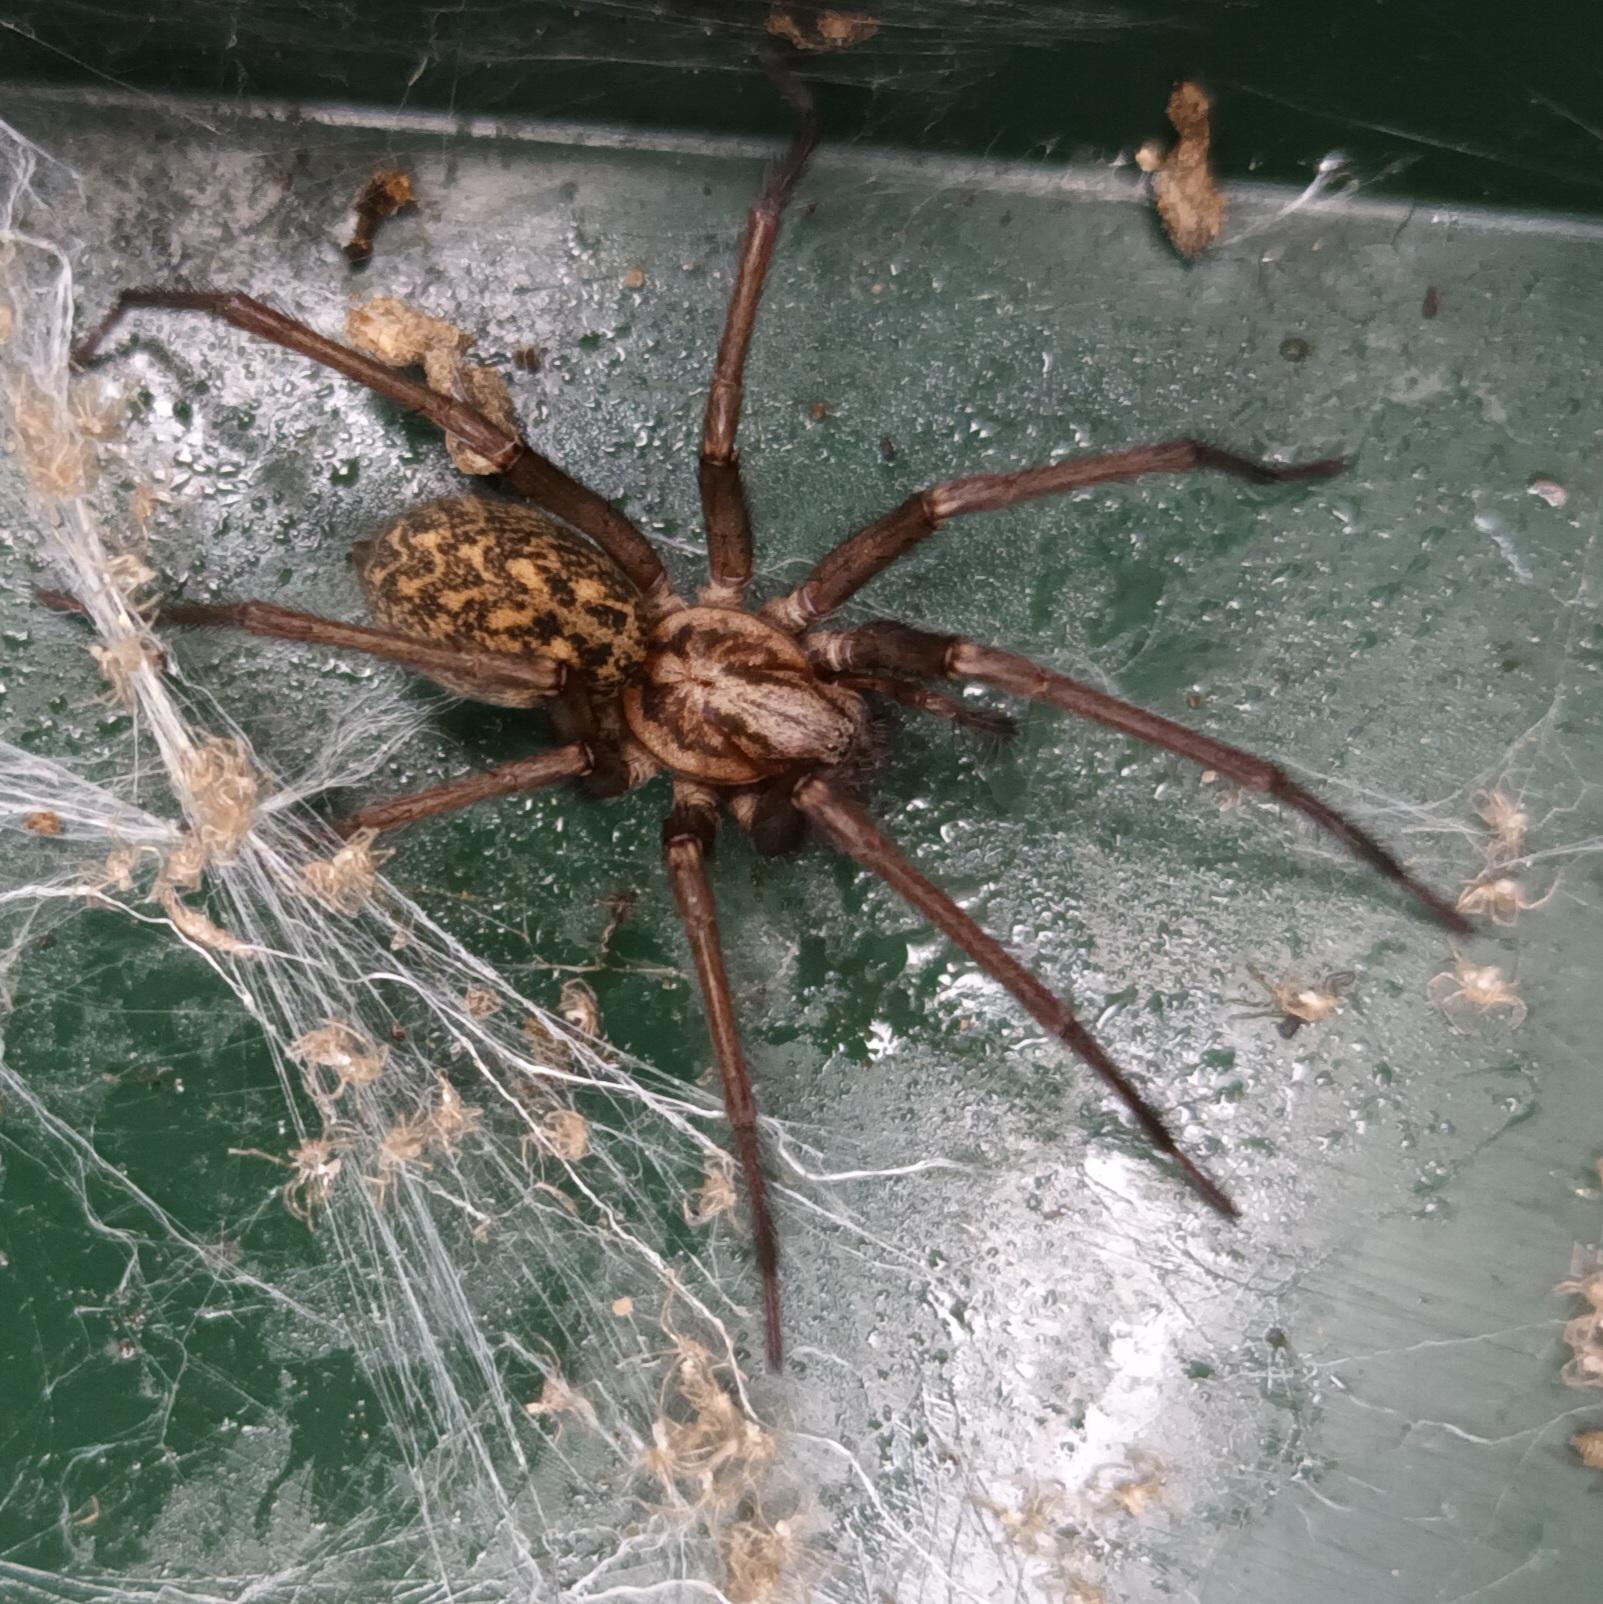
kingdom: Animalia
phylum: Arthropoda
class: Arachnida
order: Araneae
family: Agelenidae
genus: Eratigena
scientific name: Eratigena atrica
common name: Stor husedderkop
